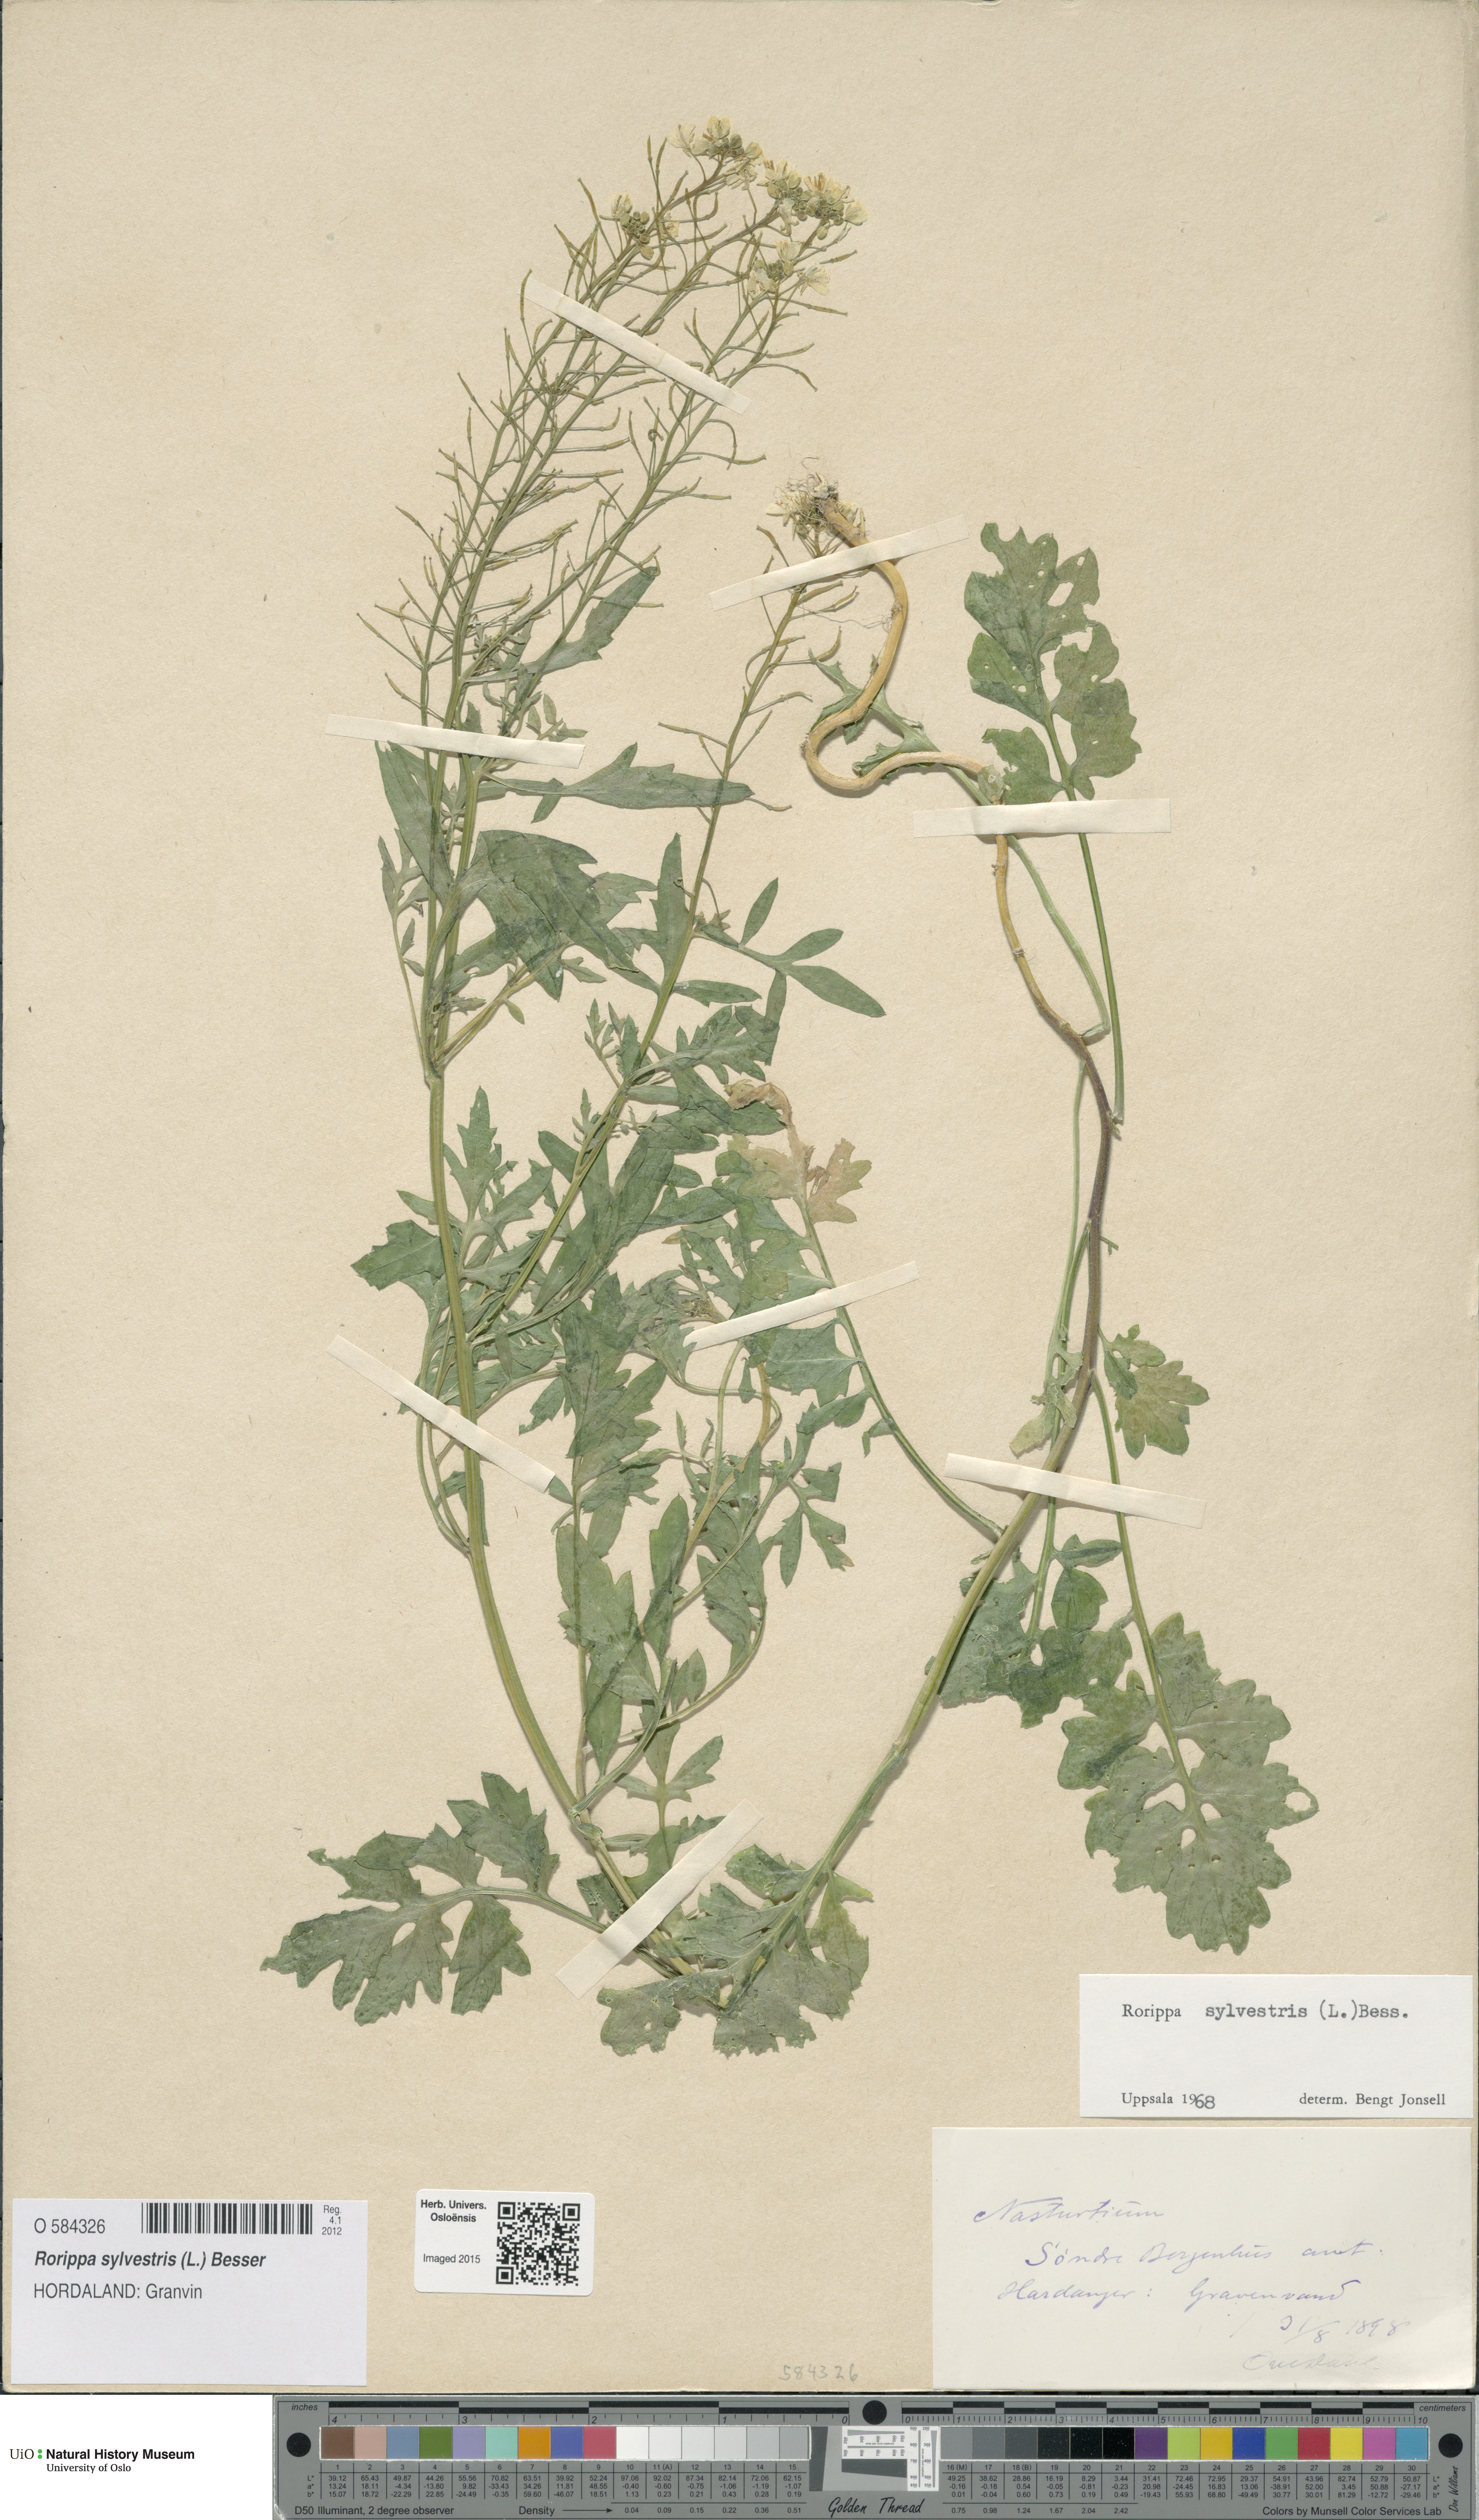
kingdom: Plantae
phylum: Tracheophyta
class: Magnoliopsida
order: Brassicales
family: Brassicaceae
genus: Rorippa
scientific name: Rorippa sylvestris
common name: Creeping yellowcress
